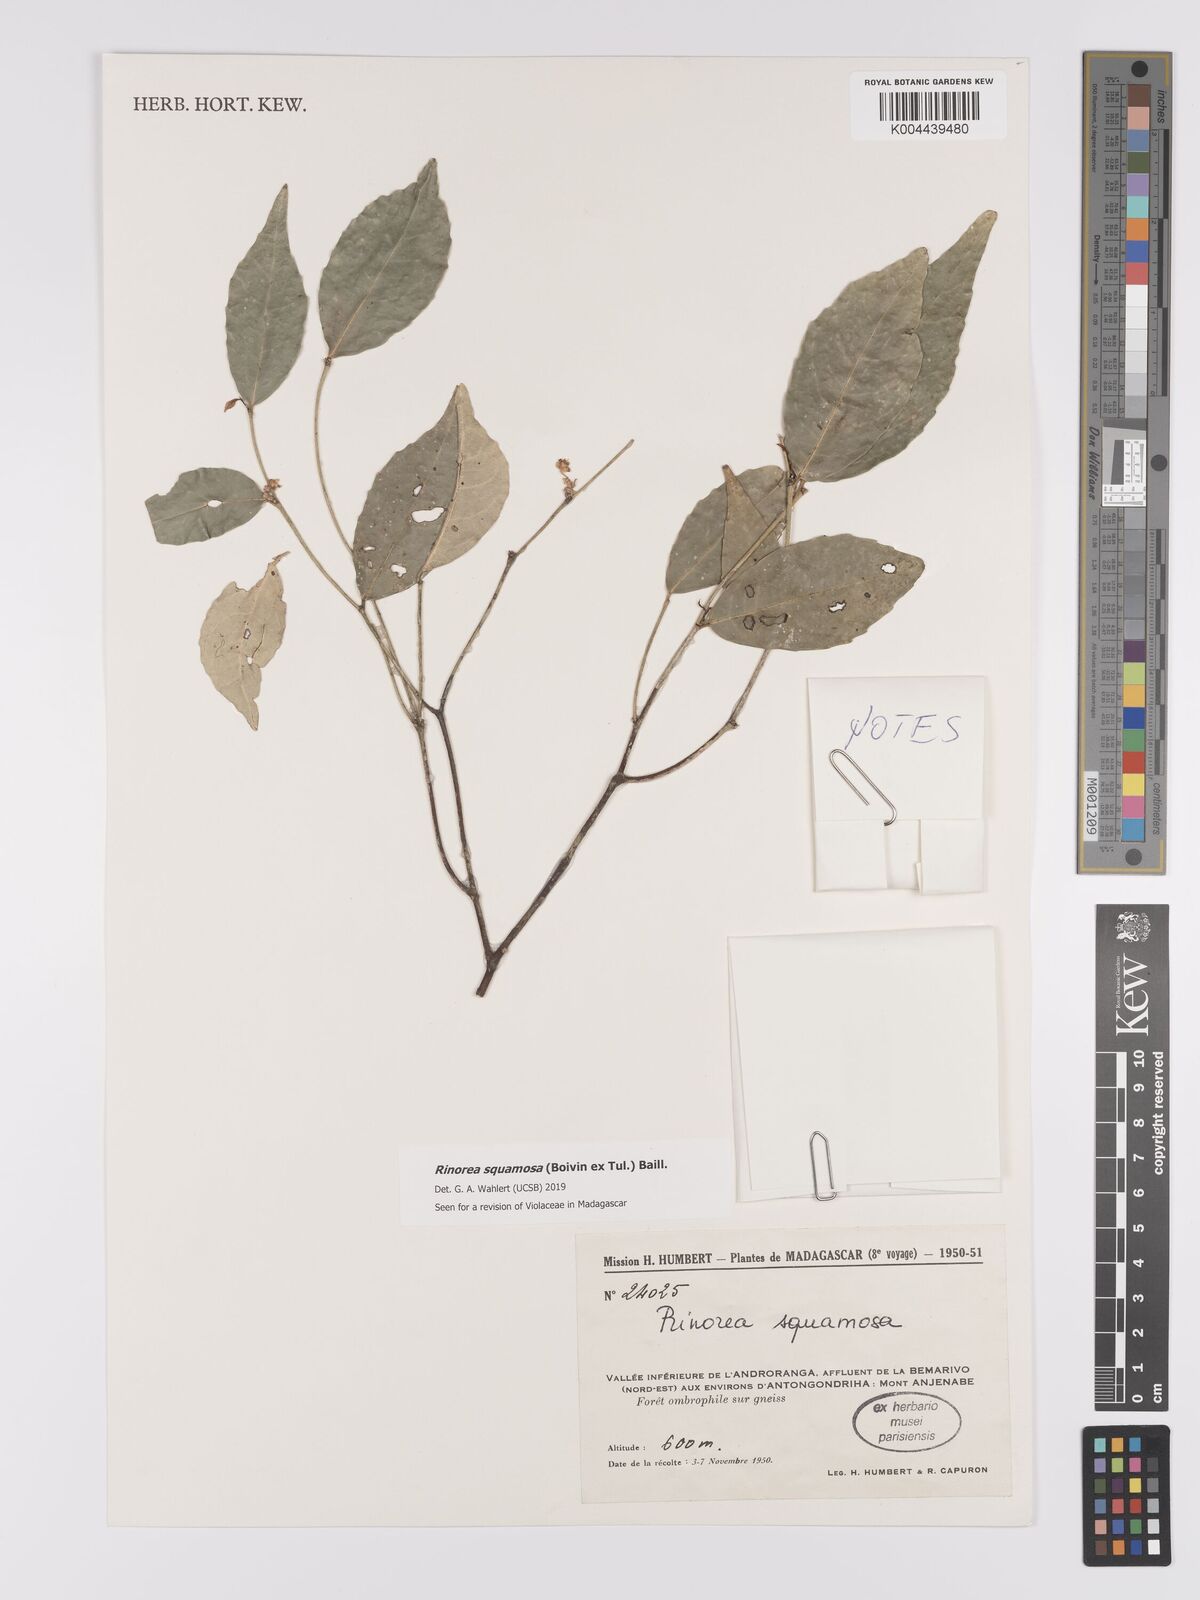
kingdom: Plantae
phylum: Tracheophyta
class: Magnoliopsida
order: Malpighiales
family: Violaceae
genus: Rinorea
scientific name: Rinorea squamosa
